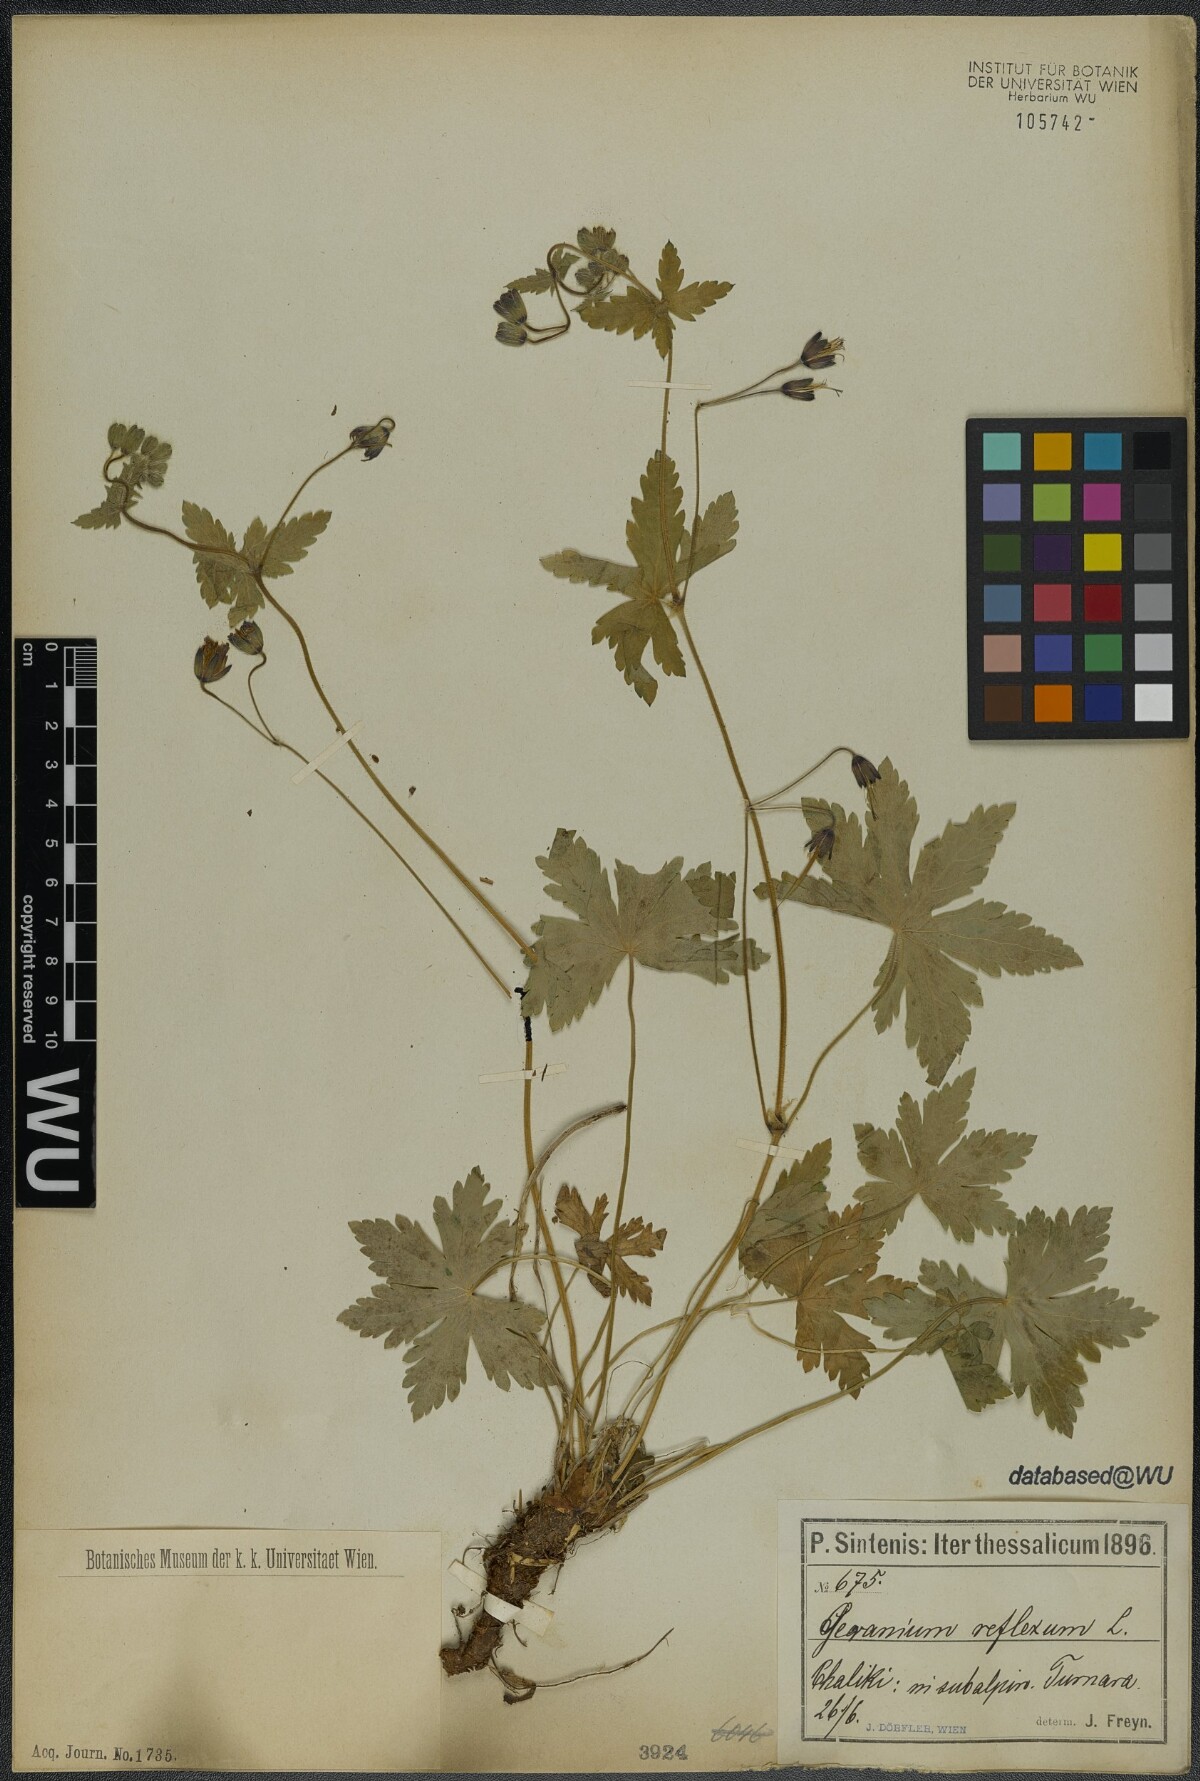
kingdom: Plantae
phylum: Tracheophyta
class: Magnoliopsida
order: Geraniales
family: Geraniaceae
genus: Geranium
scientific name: Geranium reflexum
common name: Reflexed crane's-bill
